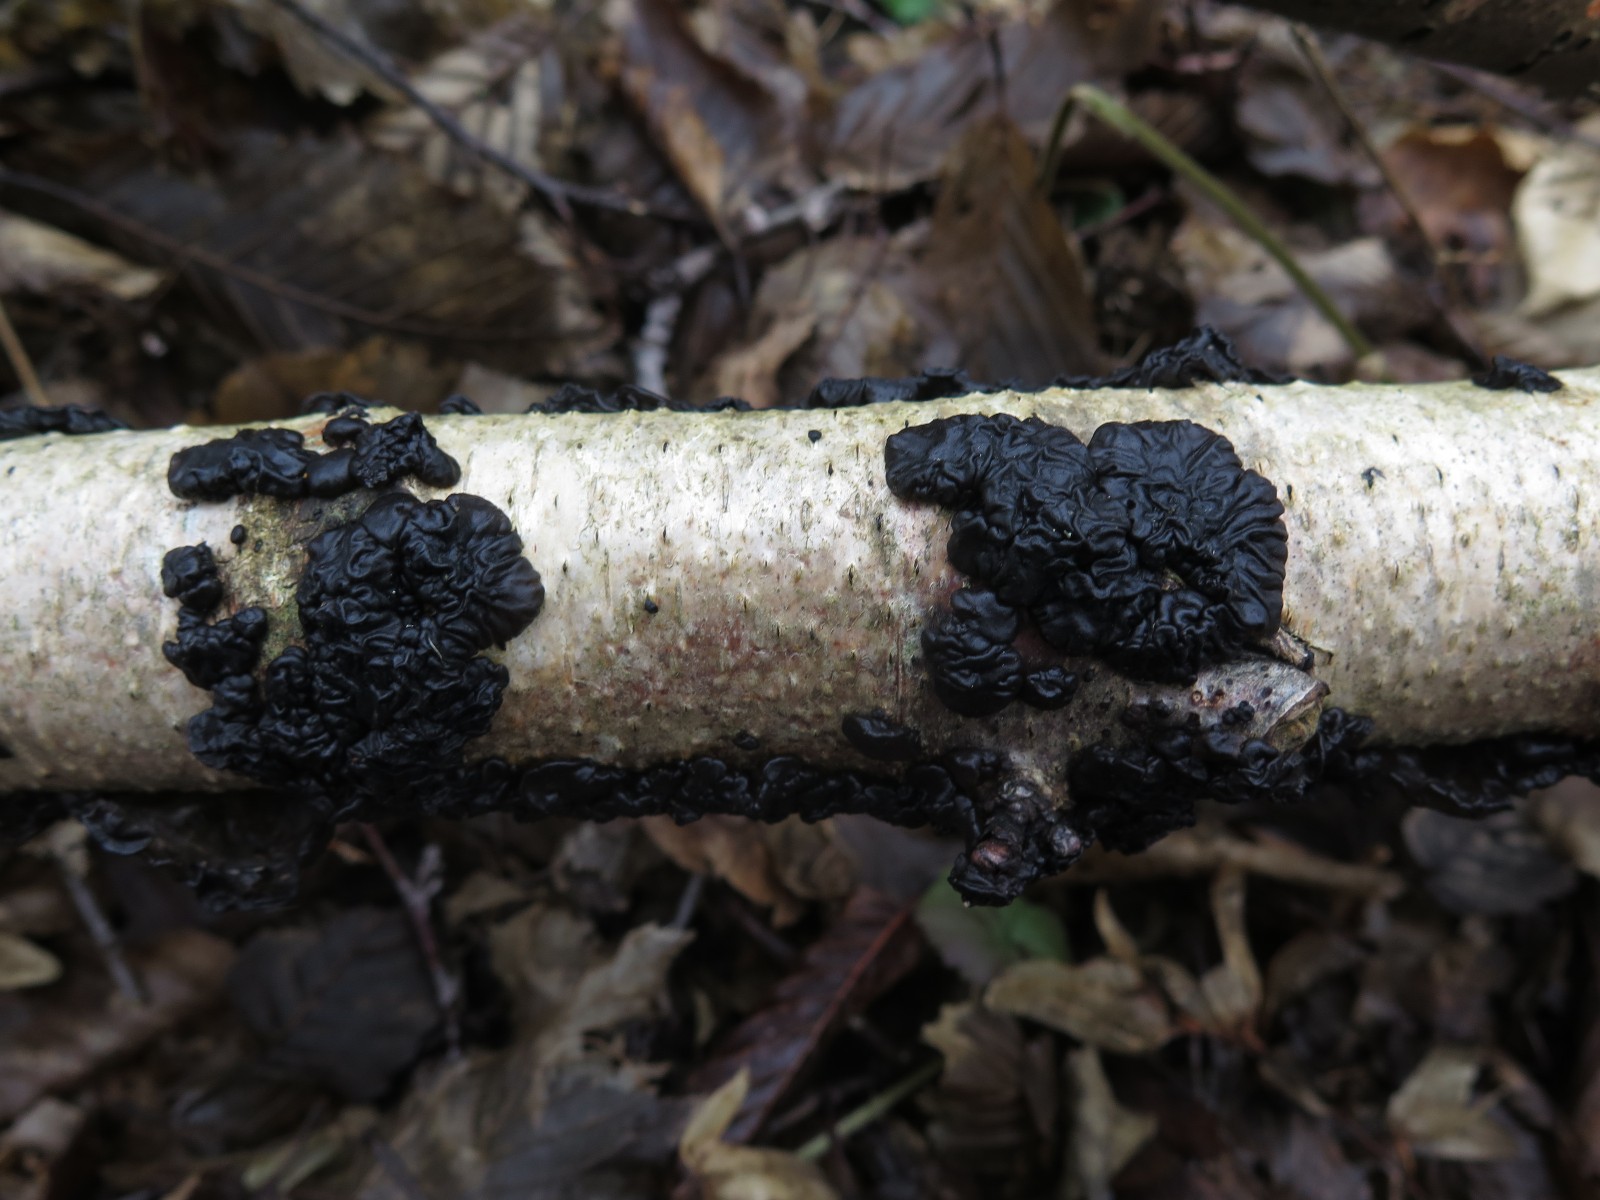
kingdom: Fungi
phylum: Basidiomycota
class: Agaricomycetes
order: Auriculariales
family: Auriculariaceae
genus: Exidia
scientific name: Exidia nigricans
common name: almindelig bævretop
